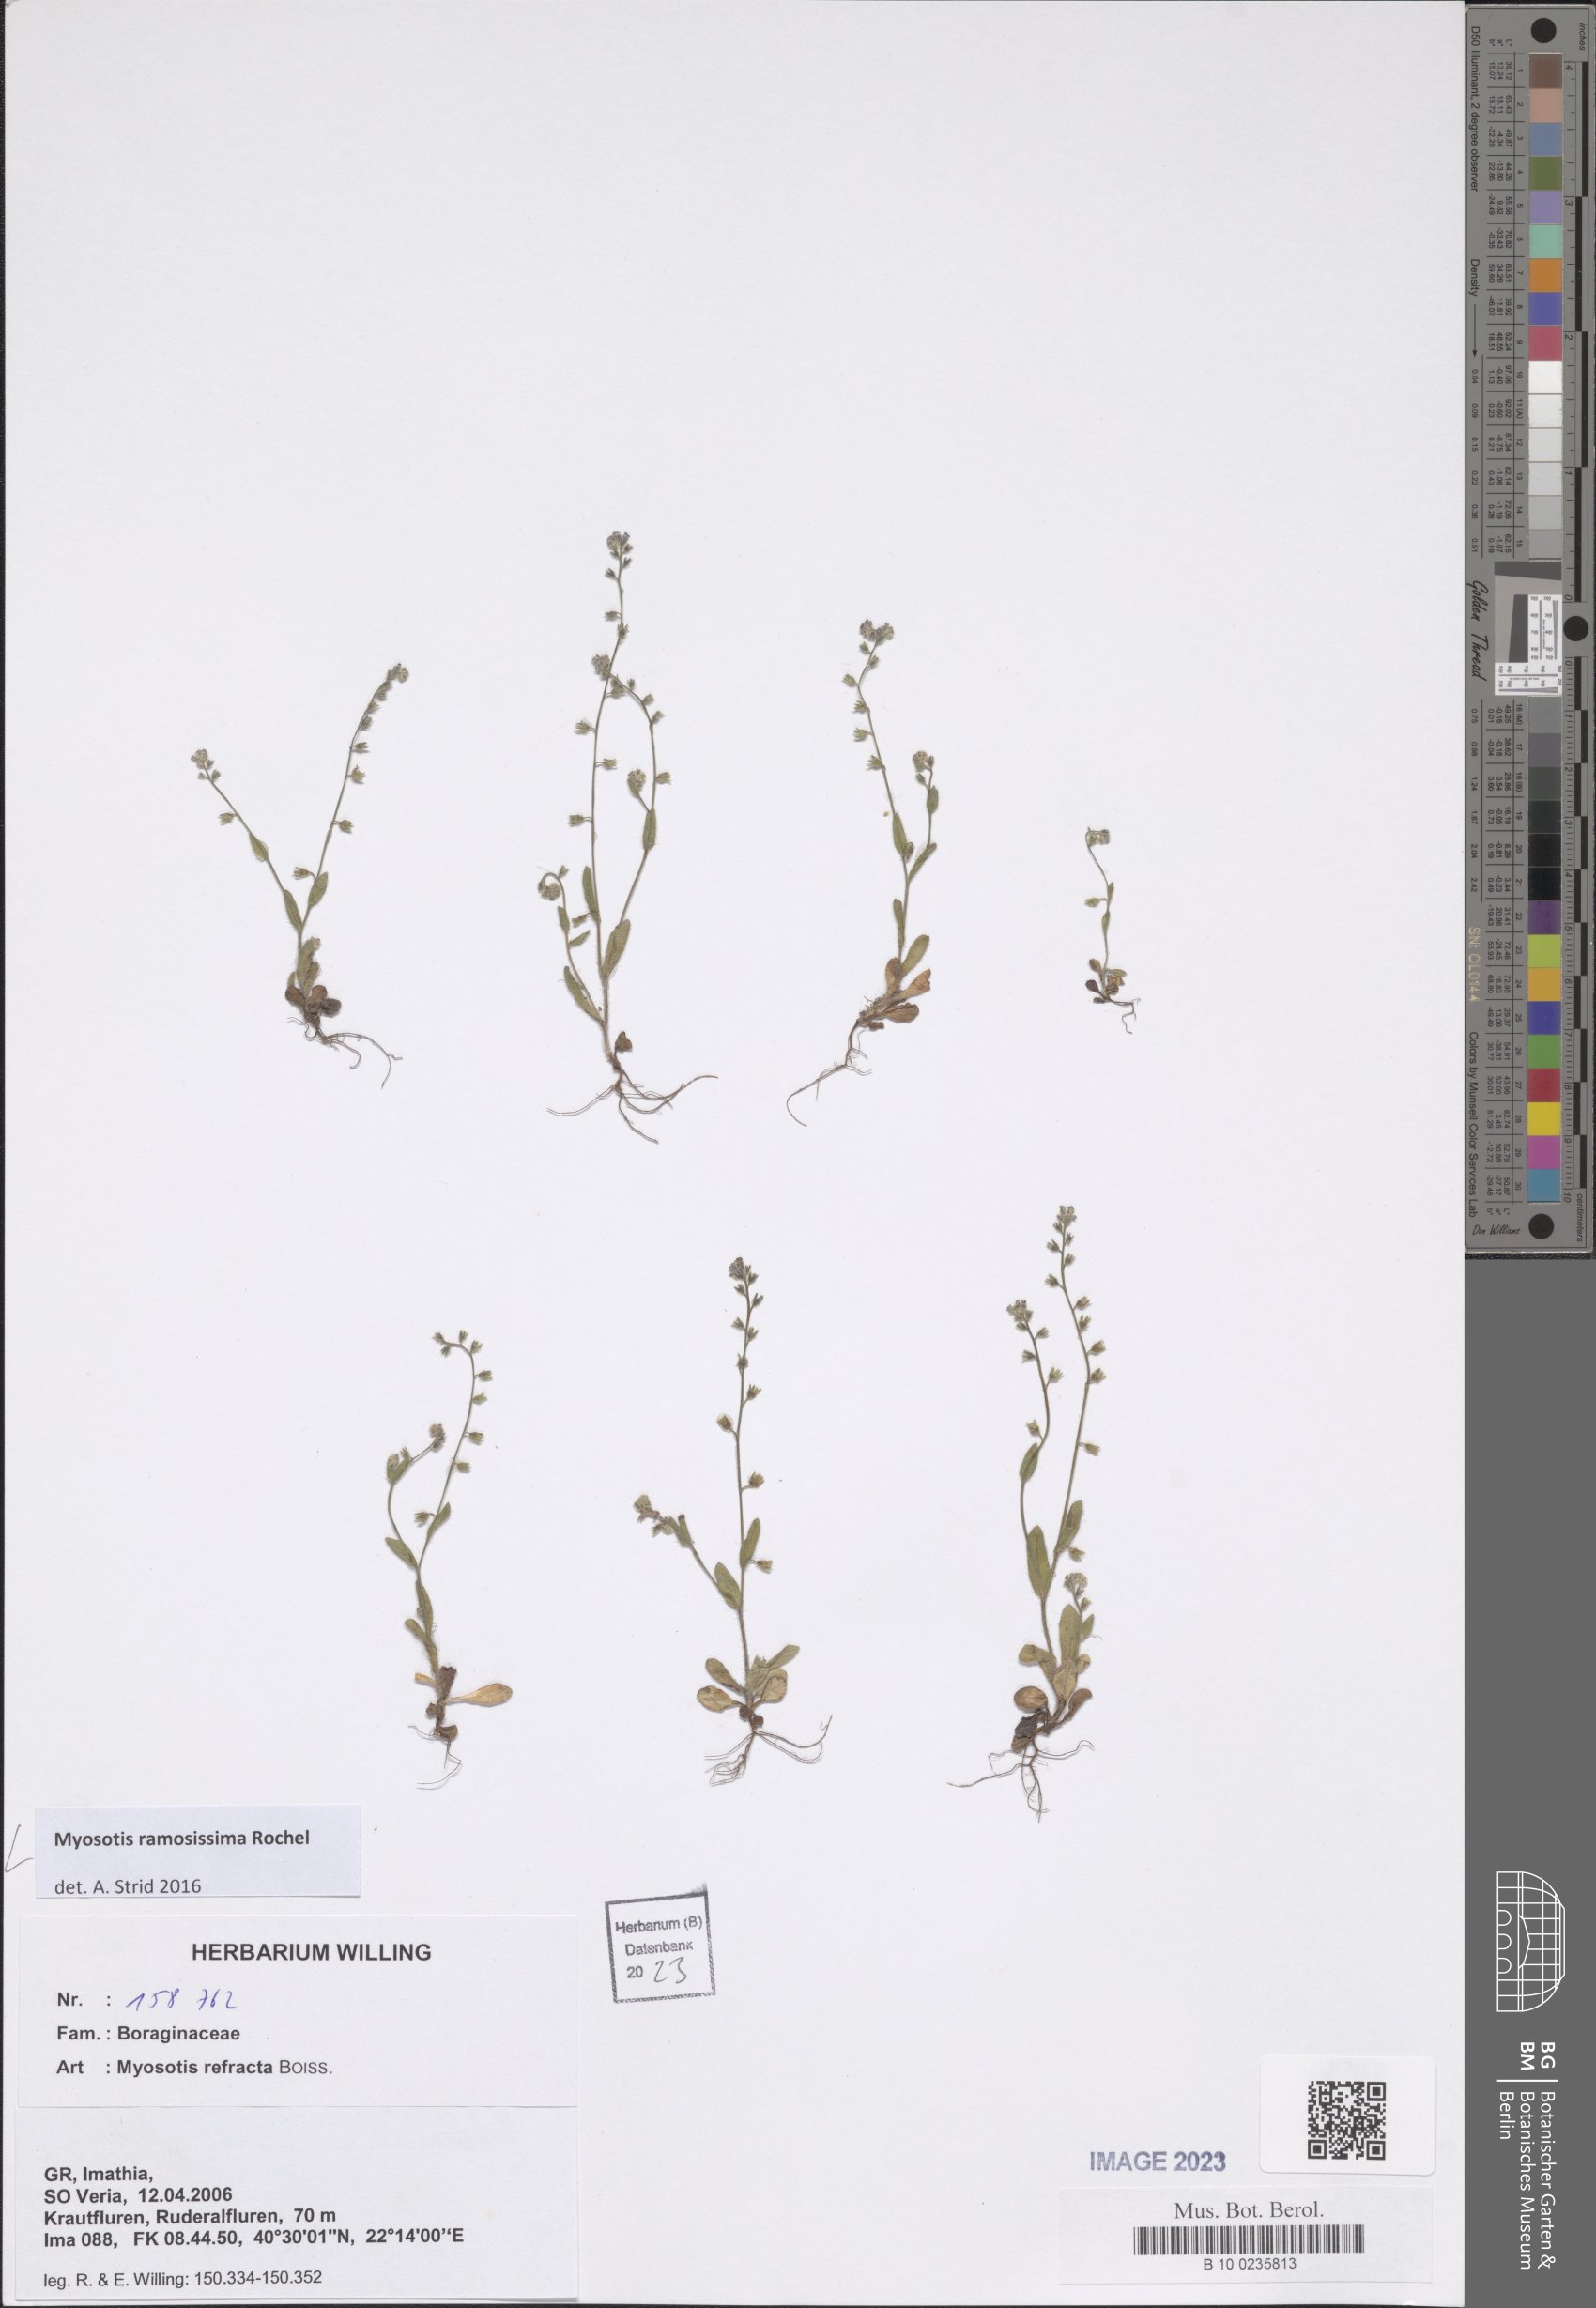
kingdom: Plantae
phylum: Tracheophyta
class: Magnoliopsida
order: Boraginales
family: Boraginaceae
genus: Myosotis
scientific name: Myosotis ramosissima
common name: Early forget-me-not
